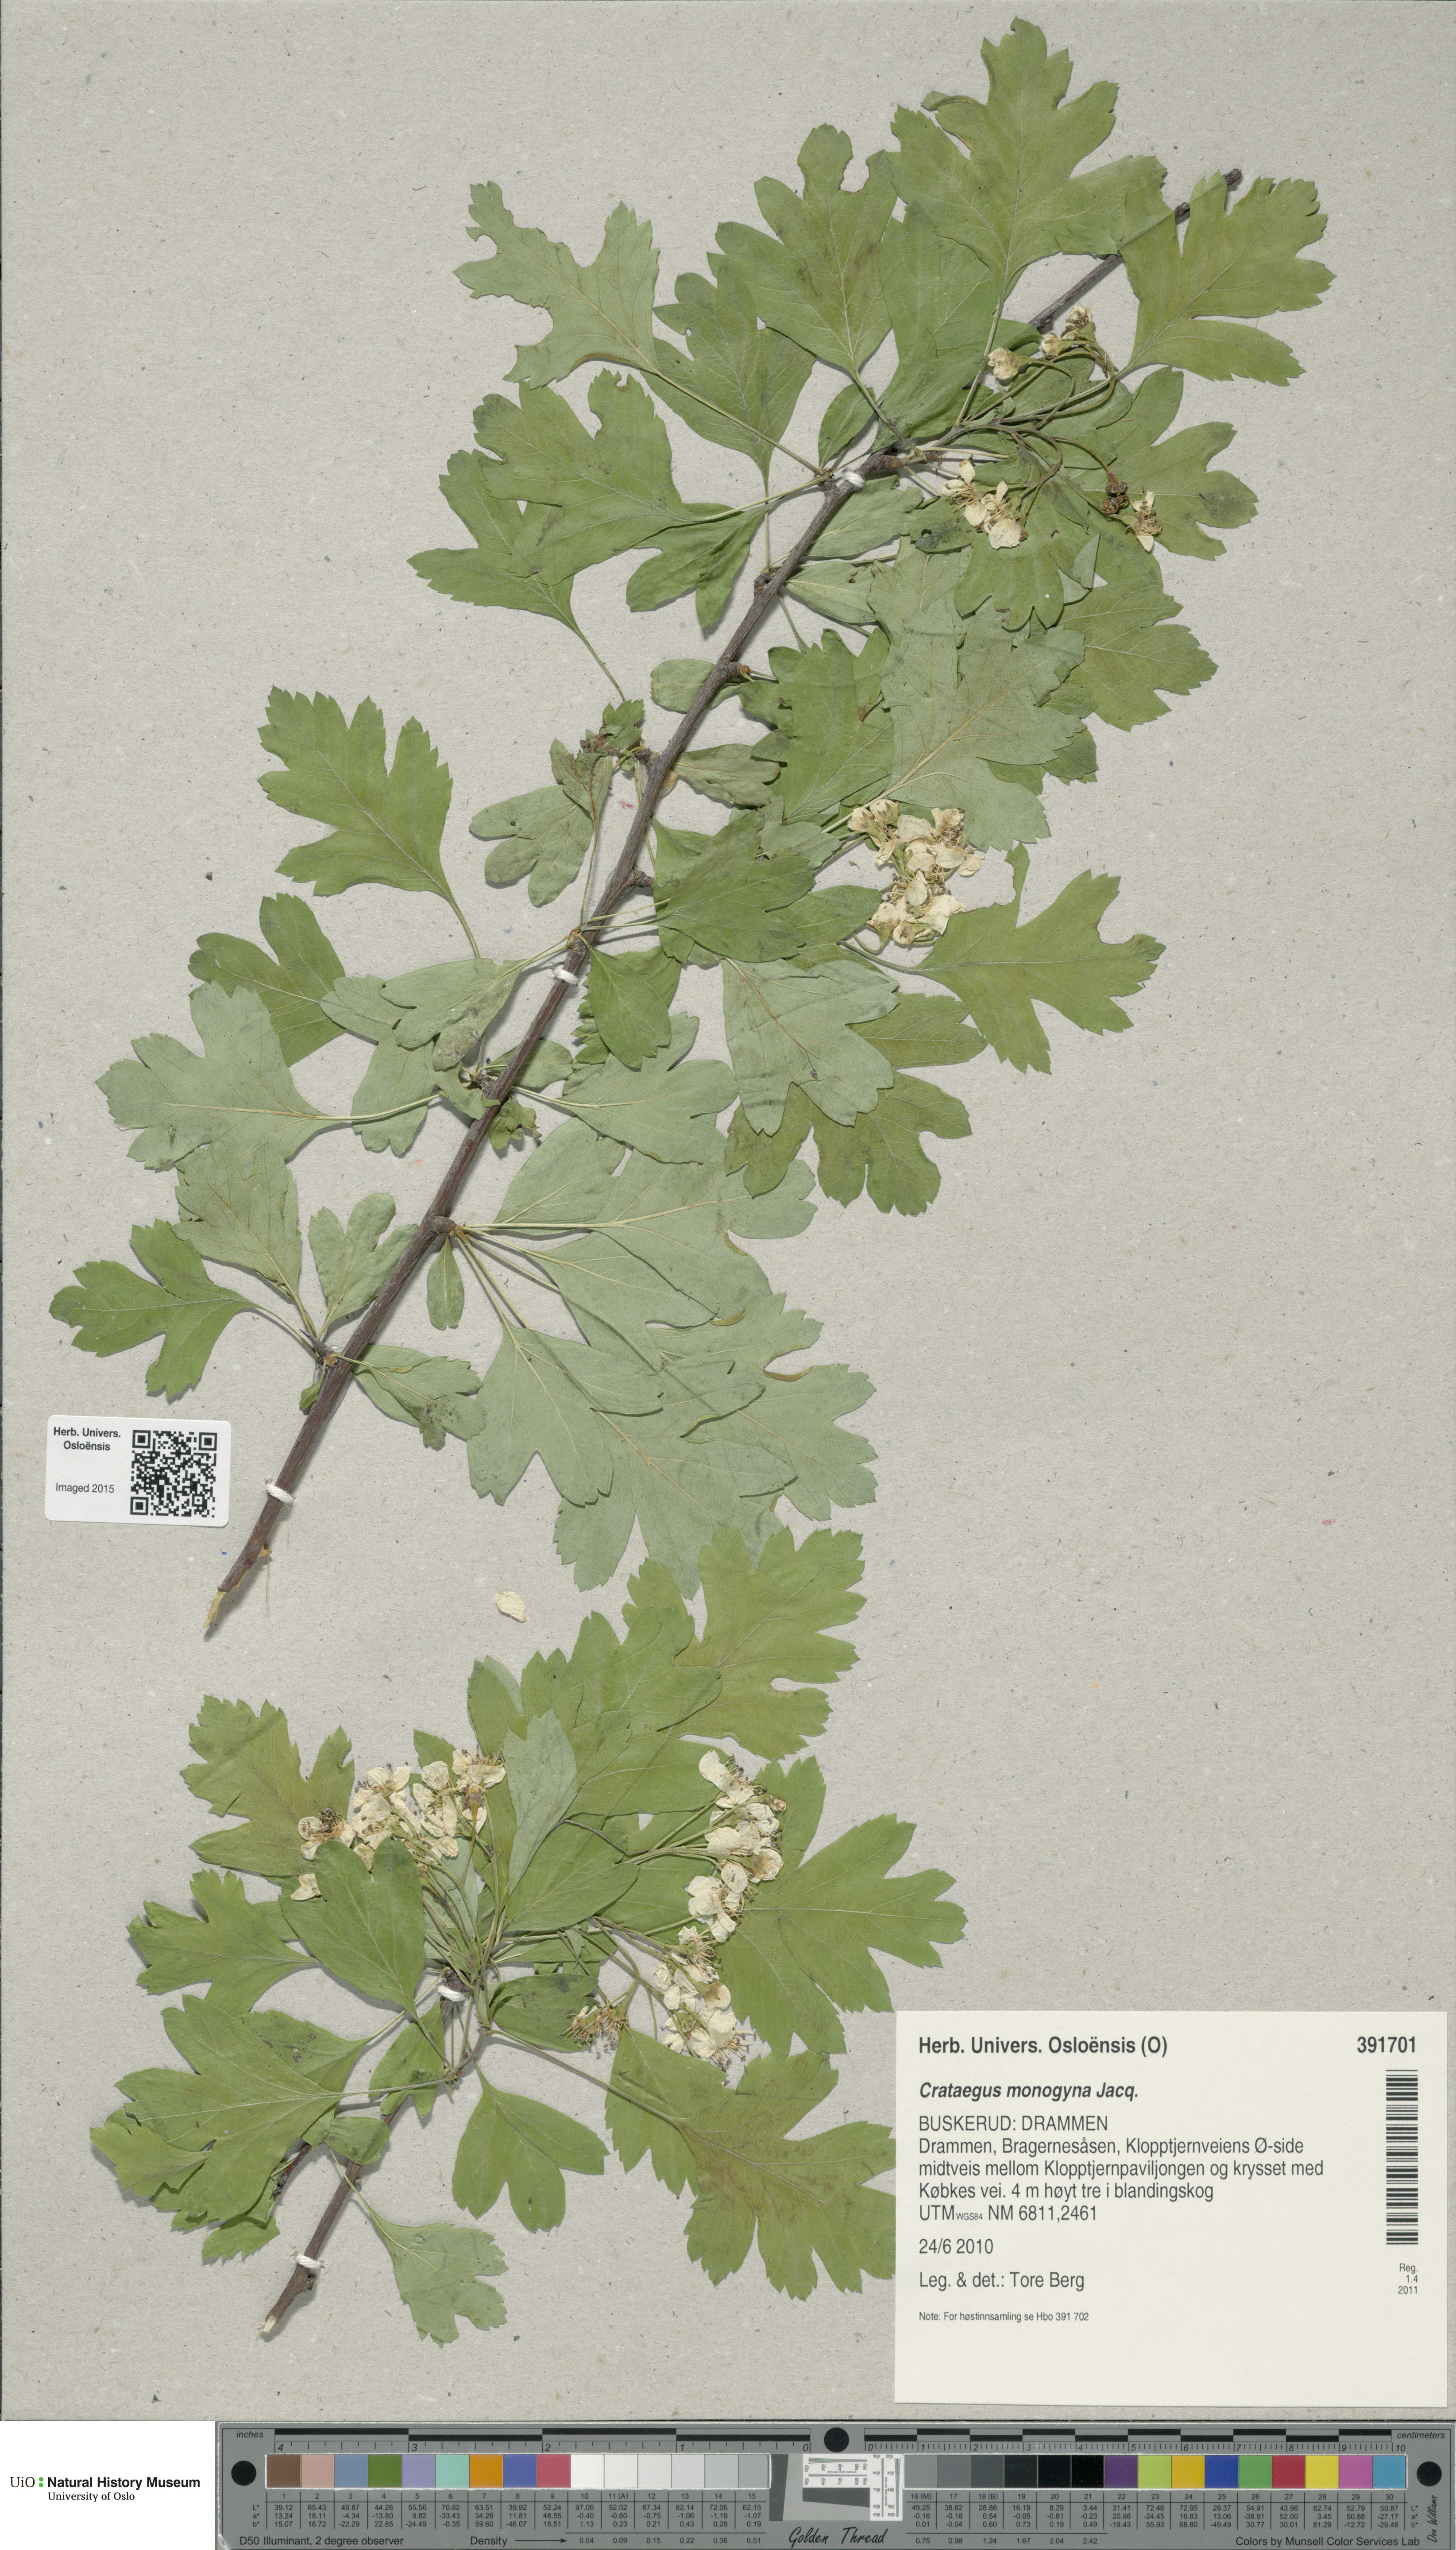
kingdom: Plantae
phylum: Tracheophyta
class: Magnoliopsida
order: Rosales
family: Rosaceae
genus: Crataegus
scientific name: Crataegus monogyna
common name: Hawthorn
